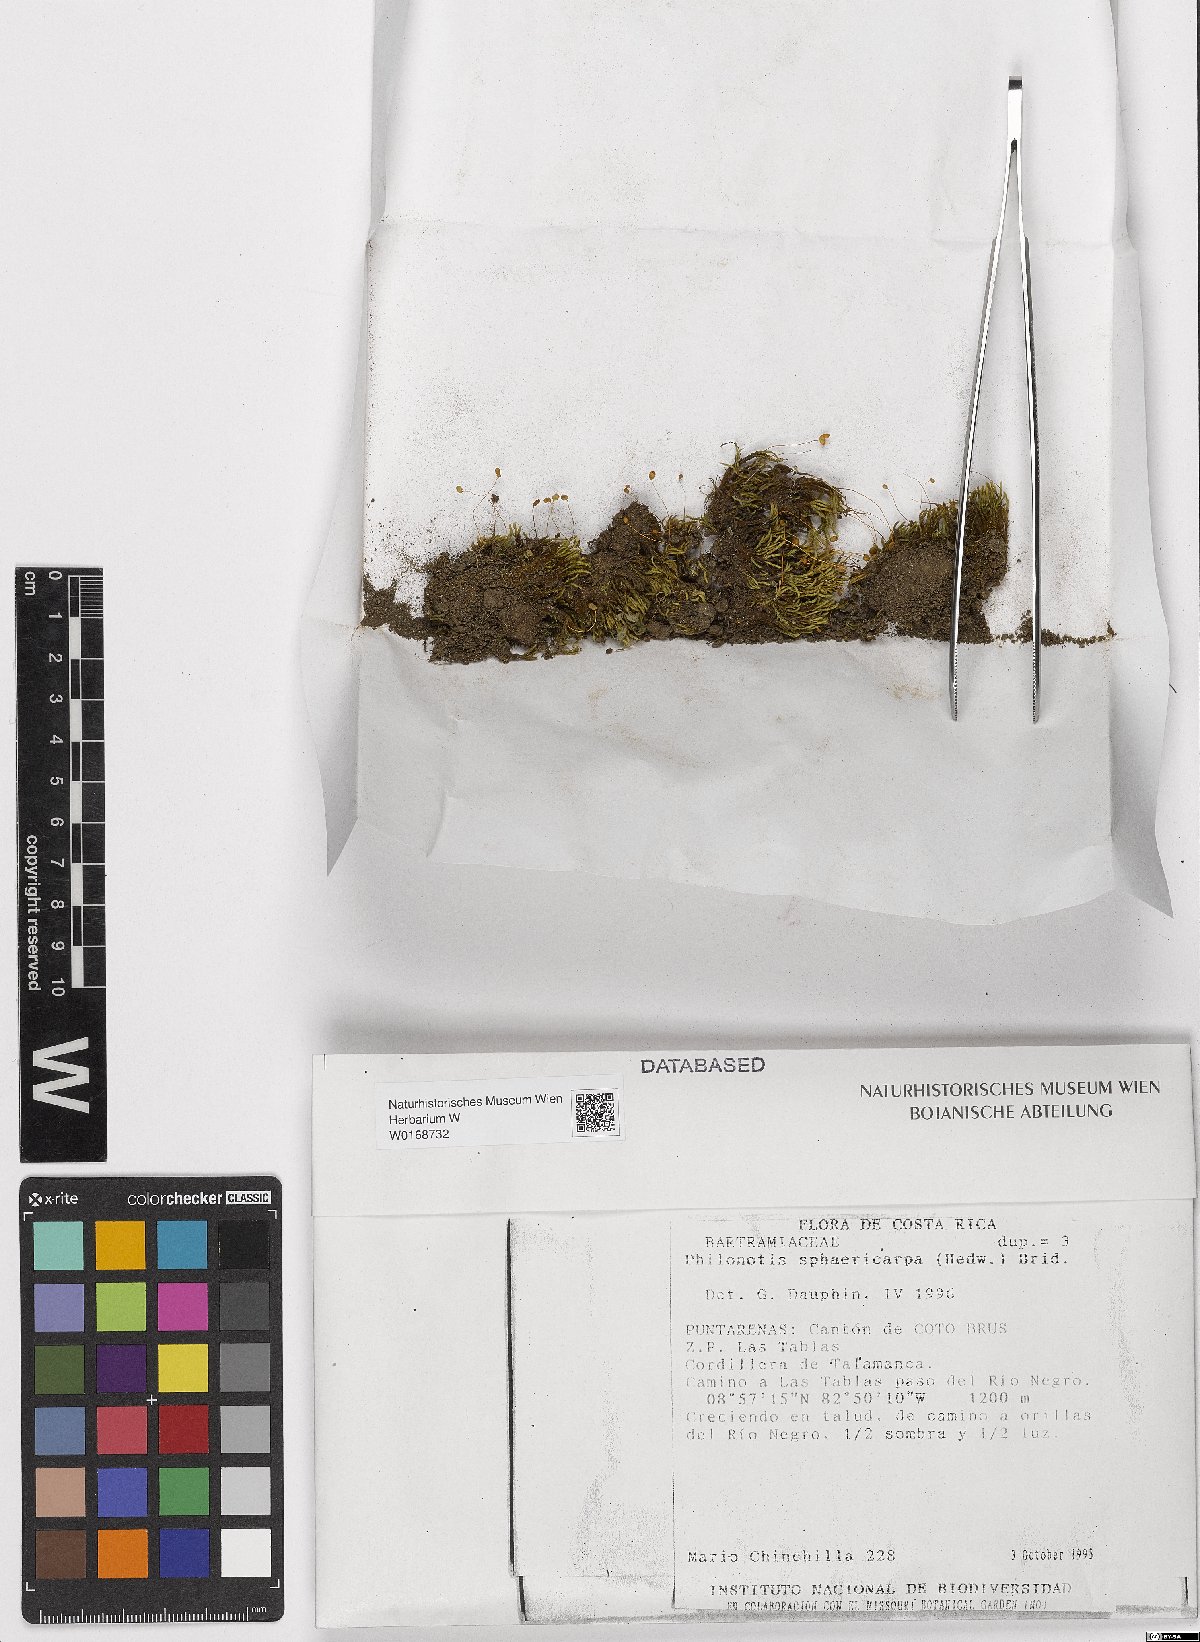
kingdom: Plantae
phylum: Bryophyta
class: Bryopsida
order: Bartramiales
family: Bartramiaceae
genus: Philonotis
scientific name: Philonotis sphaericarpa
